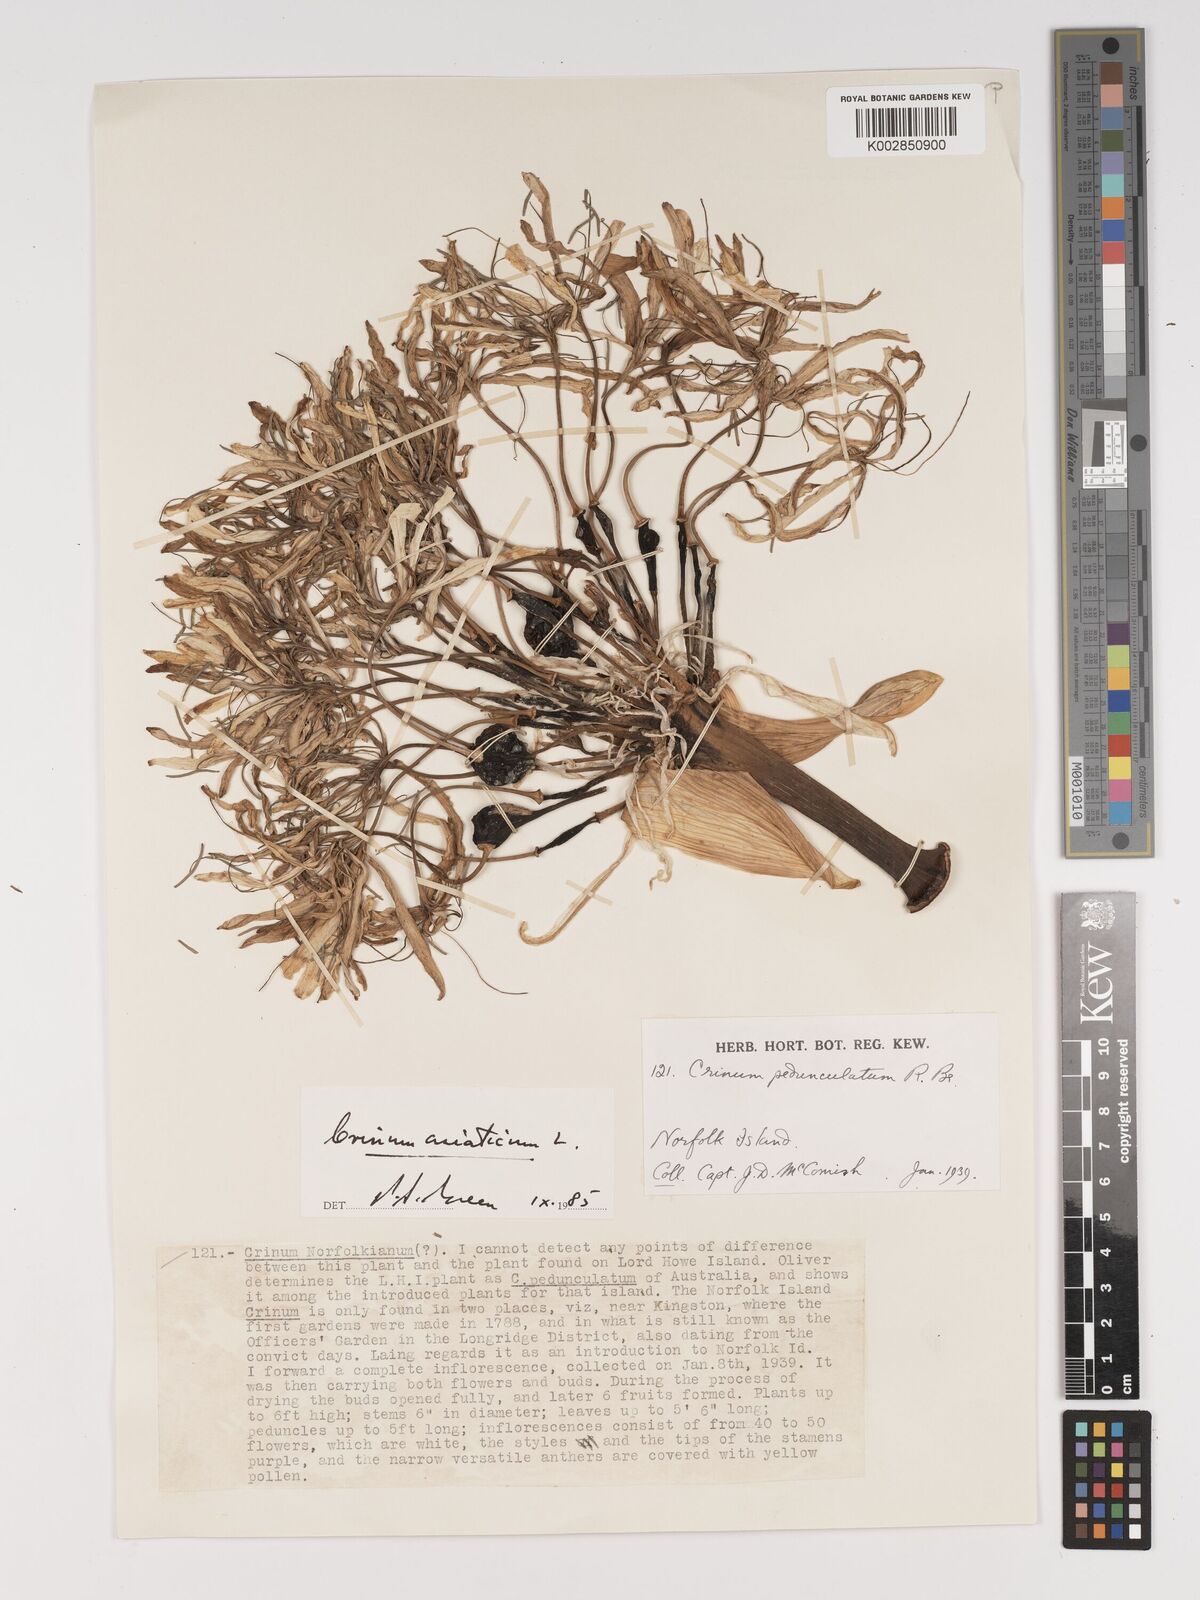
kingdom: Plantae
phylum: Tracheophyta
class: Liliopsida
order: Asparagales
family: Amaryllidaceae
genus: Crinum
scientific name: Crinum asiaticum
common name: Poisonbulb
